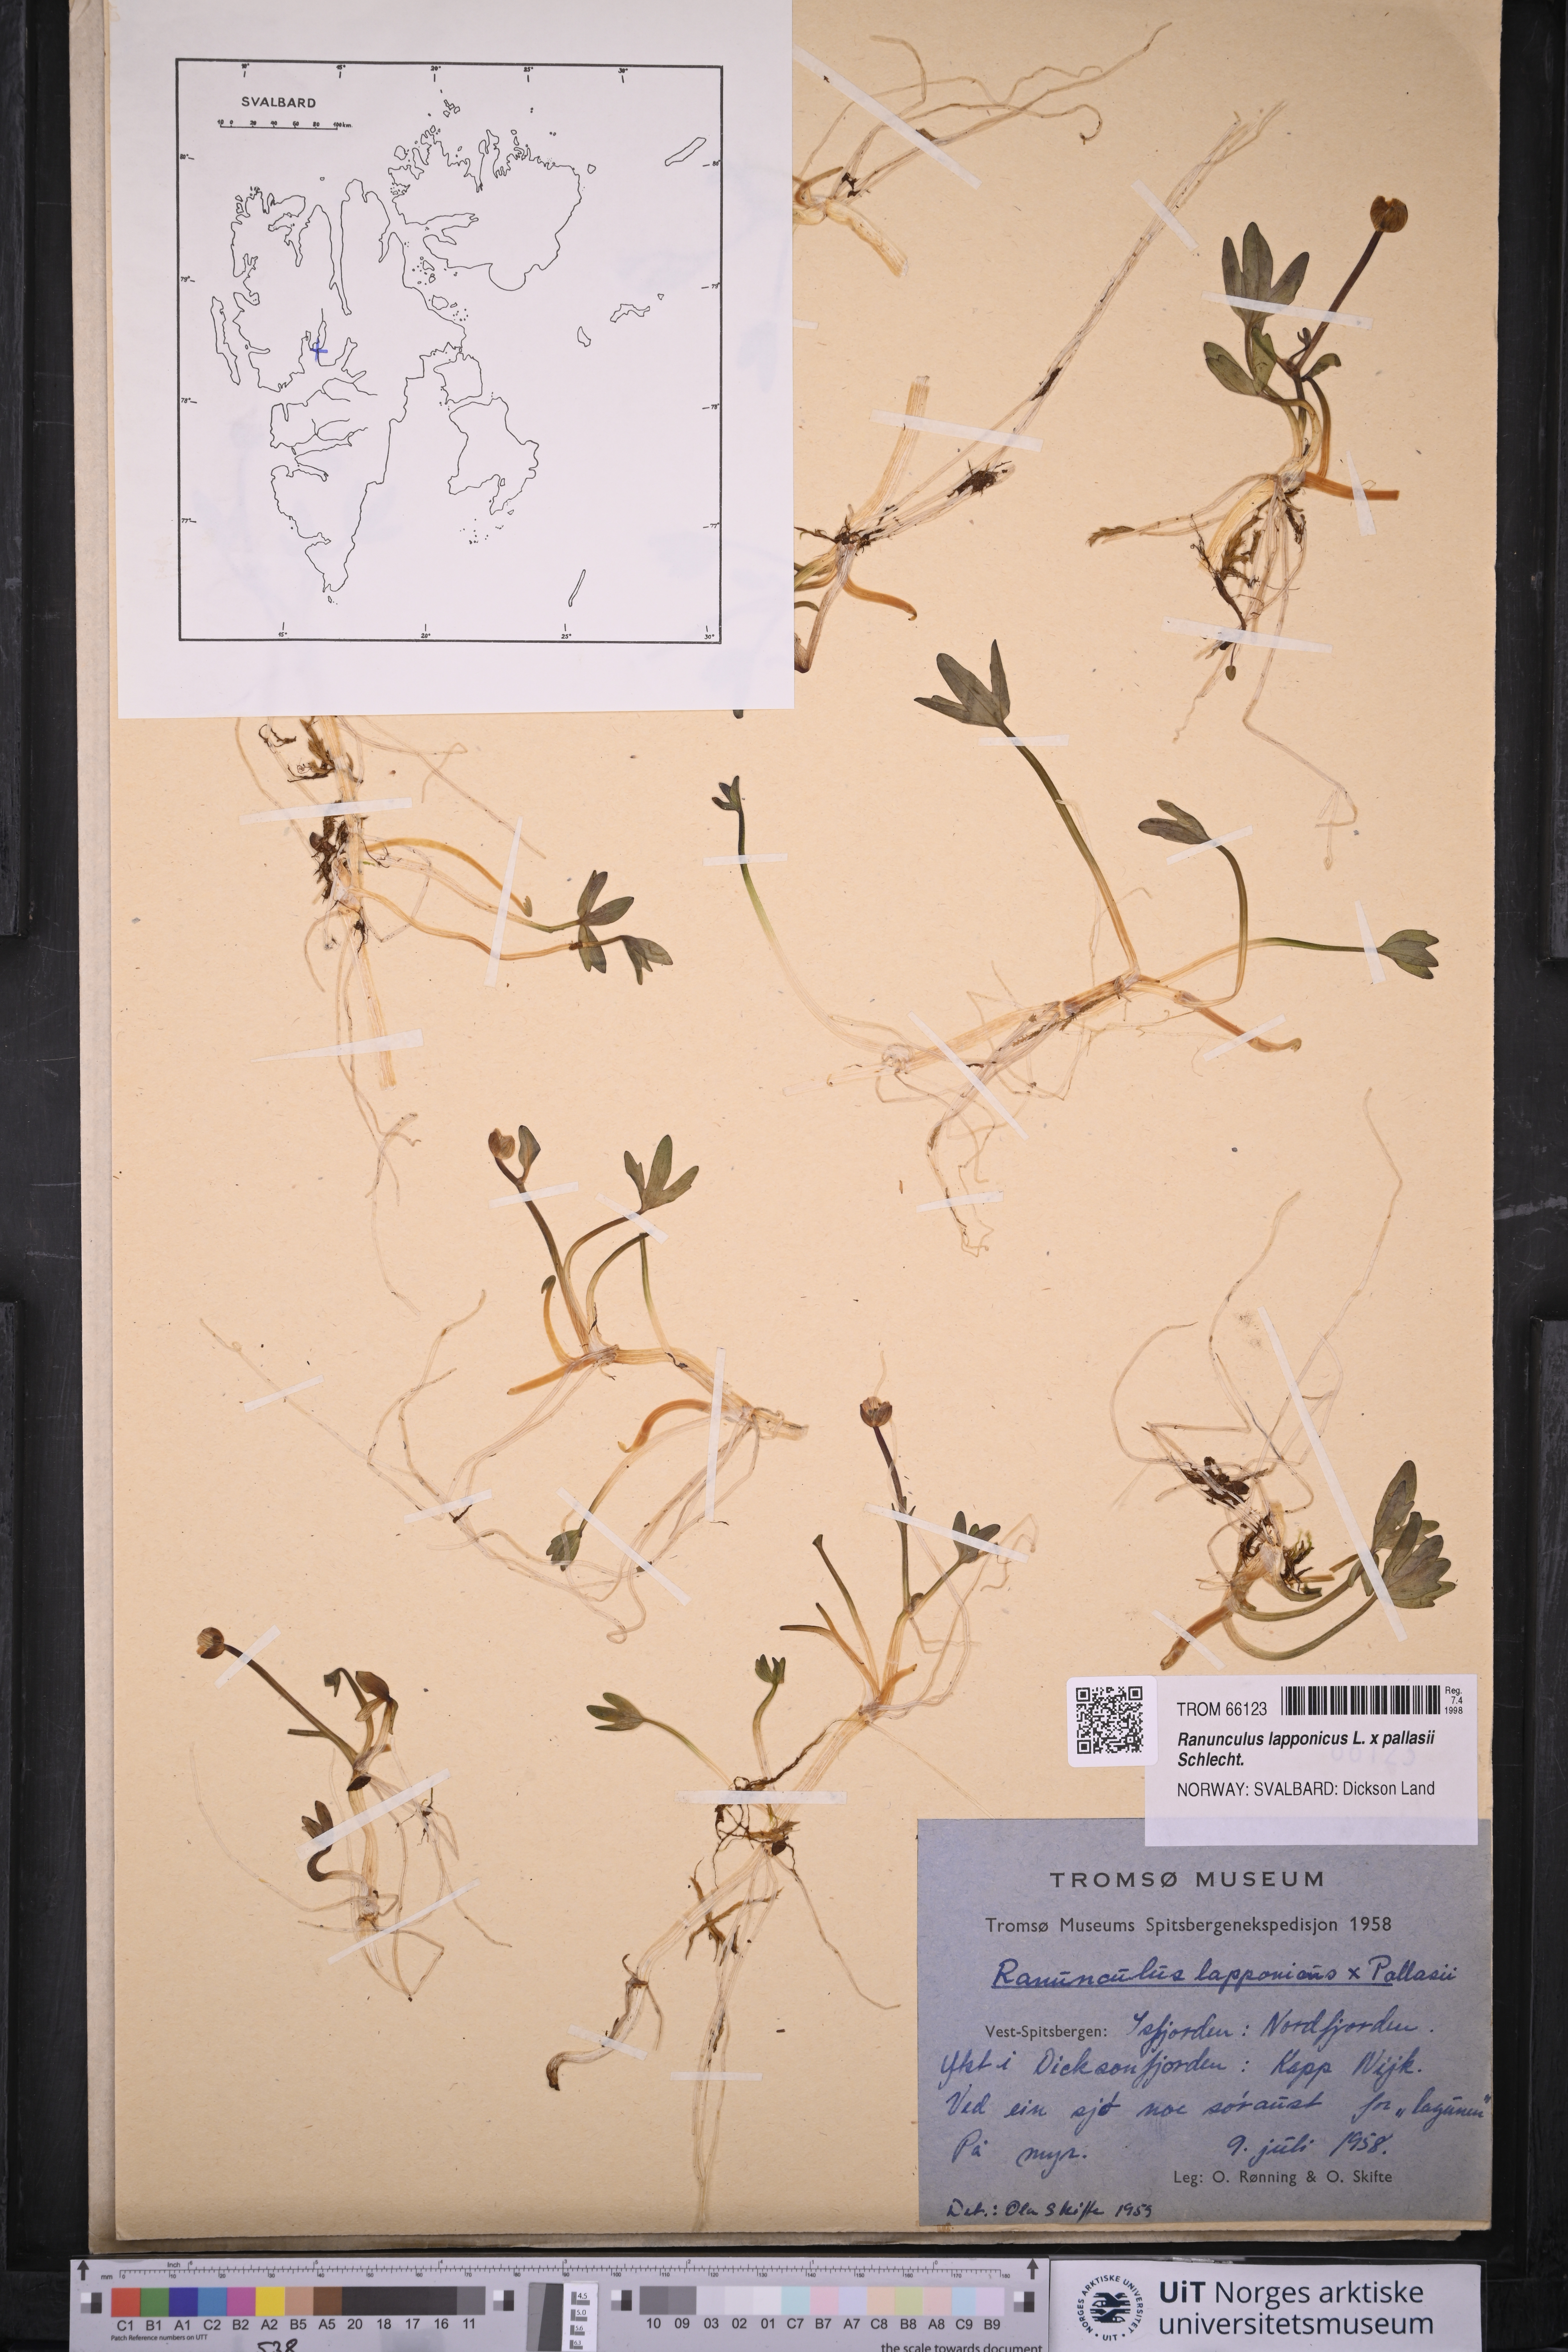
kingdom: Plantae
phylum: Tracheophyta
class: Magnoliopsida
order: Ranunculales
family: Ranunculaceae
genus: Coptidium
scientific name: Coptidium spitsbergense
